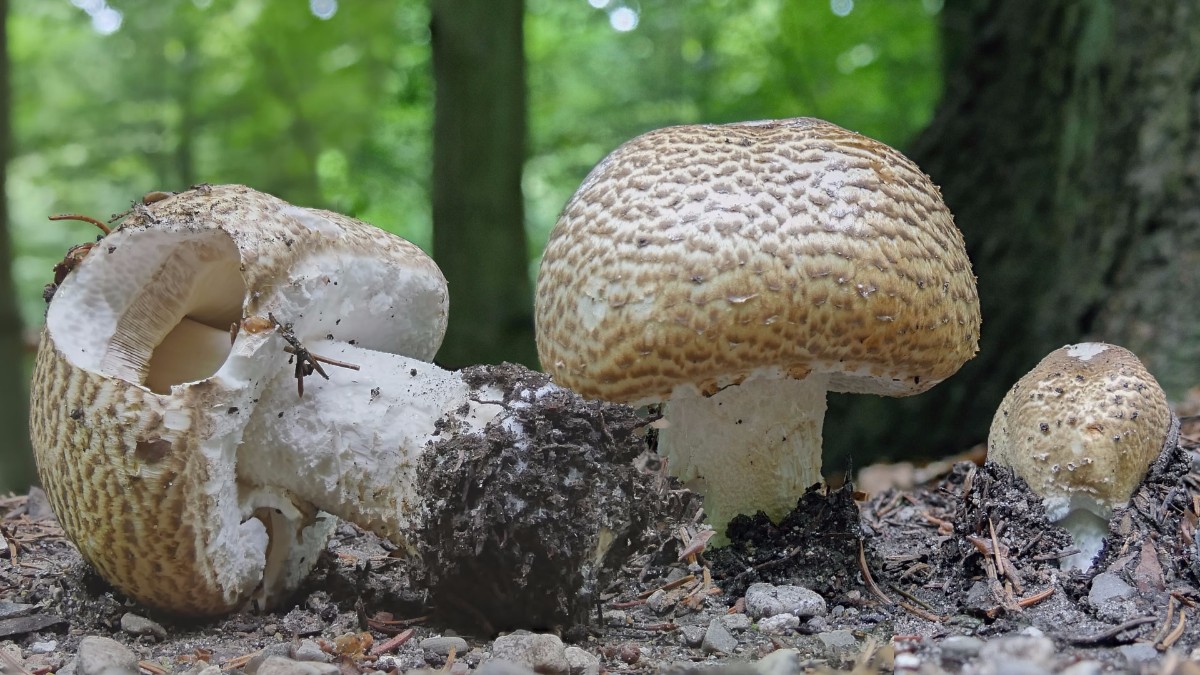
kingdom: Fungi
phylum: Basidiomycota
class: Agaricomycetes
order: Agaricales
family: Agaricaceae
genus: Agaricus
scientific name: Agaricus augustus
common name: prægtig champignon
